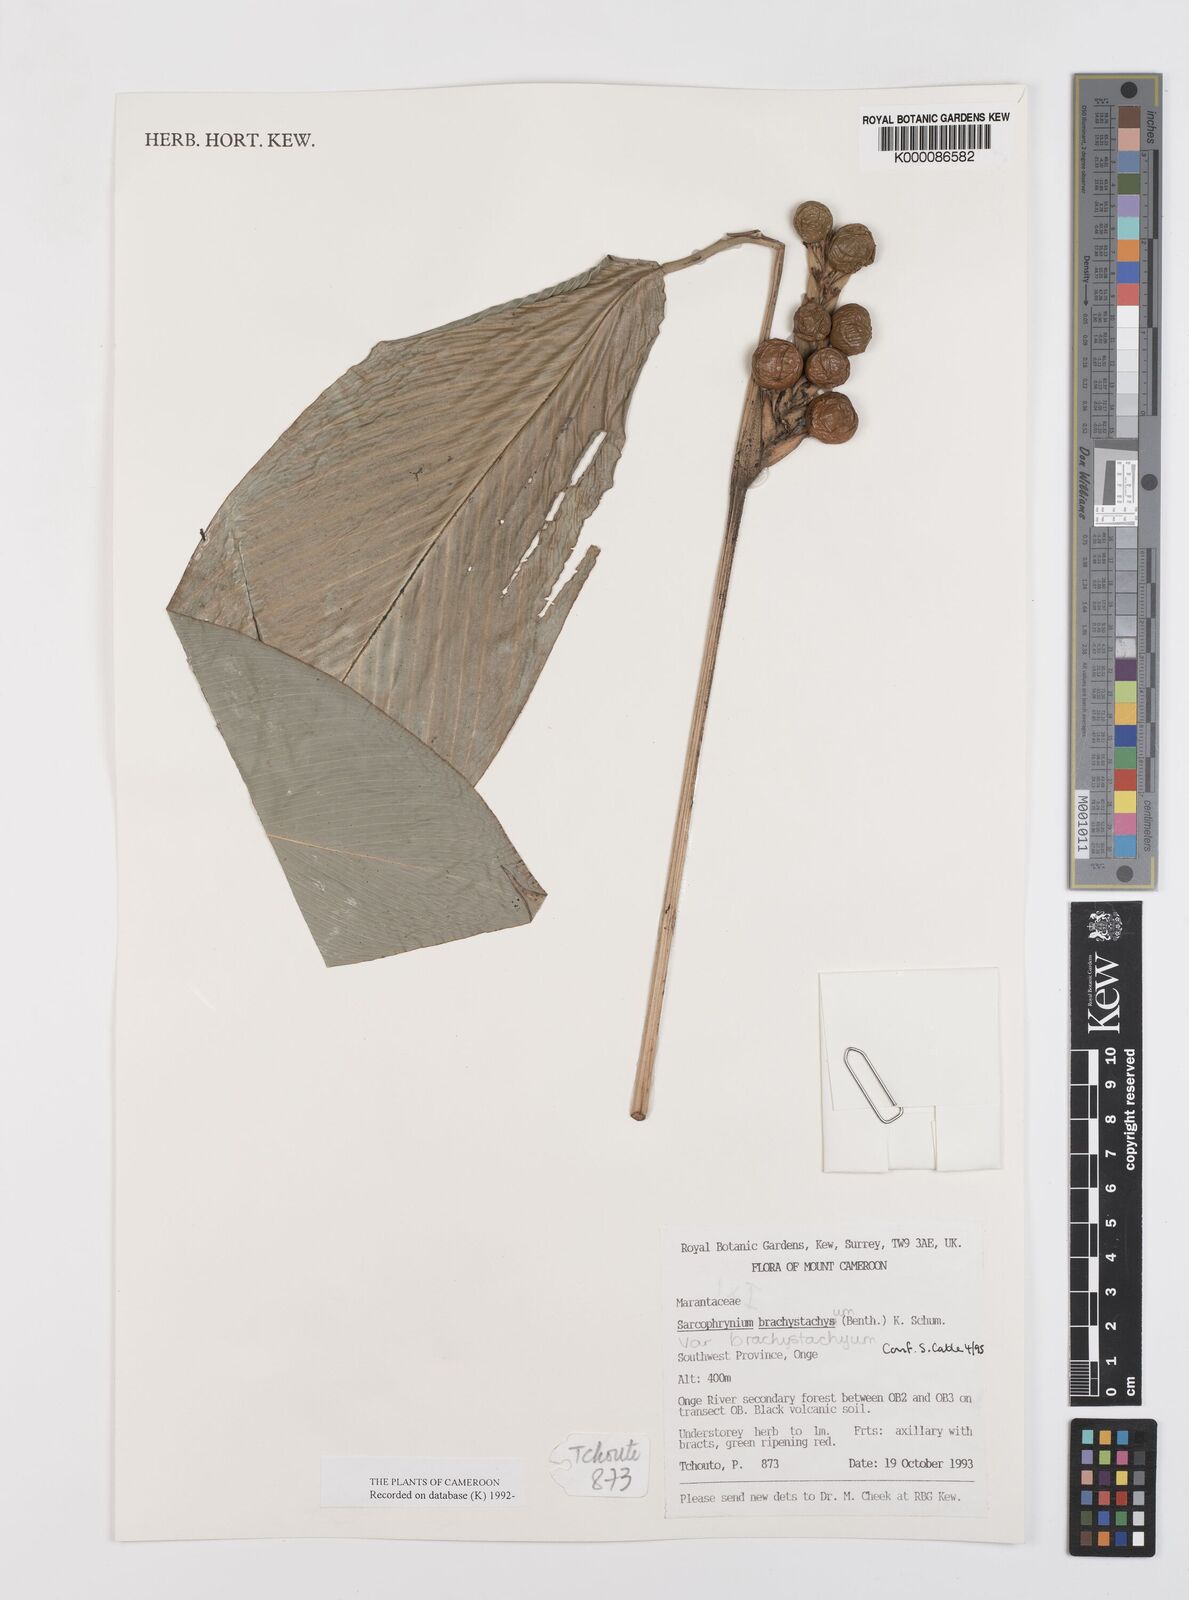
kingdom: Plantae
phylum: Tracheophyta
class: Liliopsida
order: Zingiberales
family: Marantaceae
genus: Sarcophrynium
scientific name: Sarcophrynium
